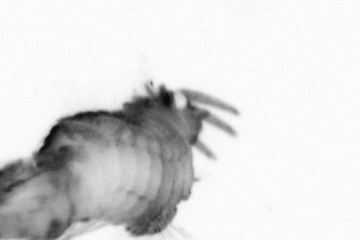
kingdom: Animalia
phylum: Annelida
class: Polychaeta
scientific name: Polychaeta
